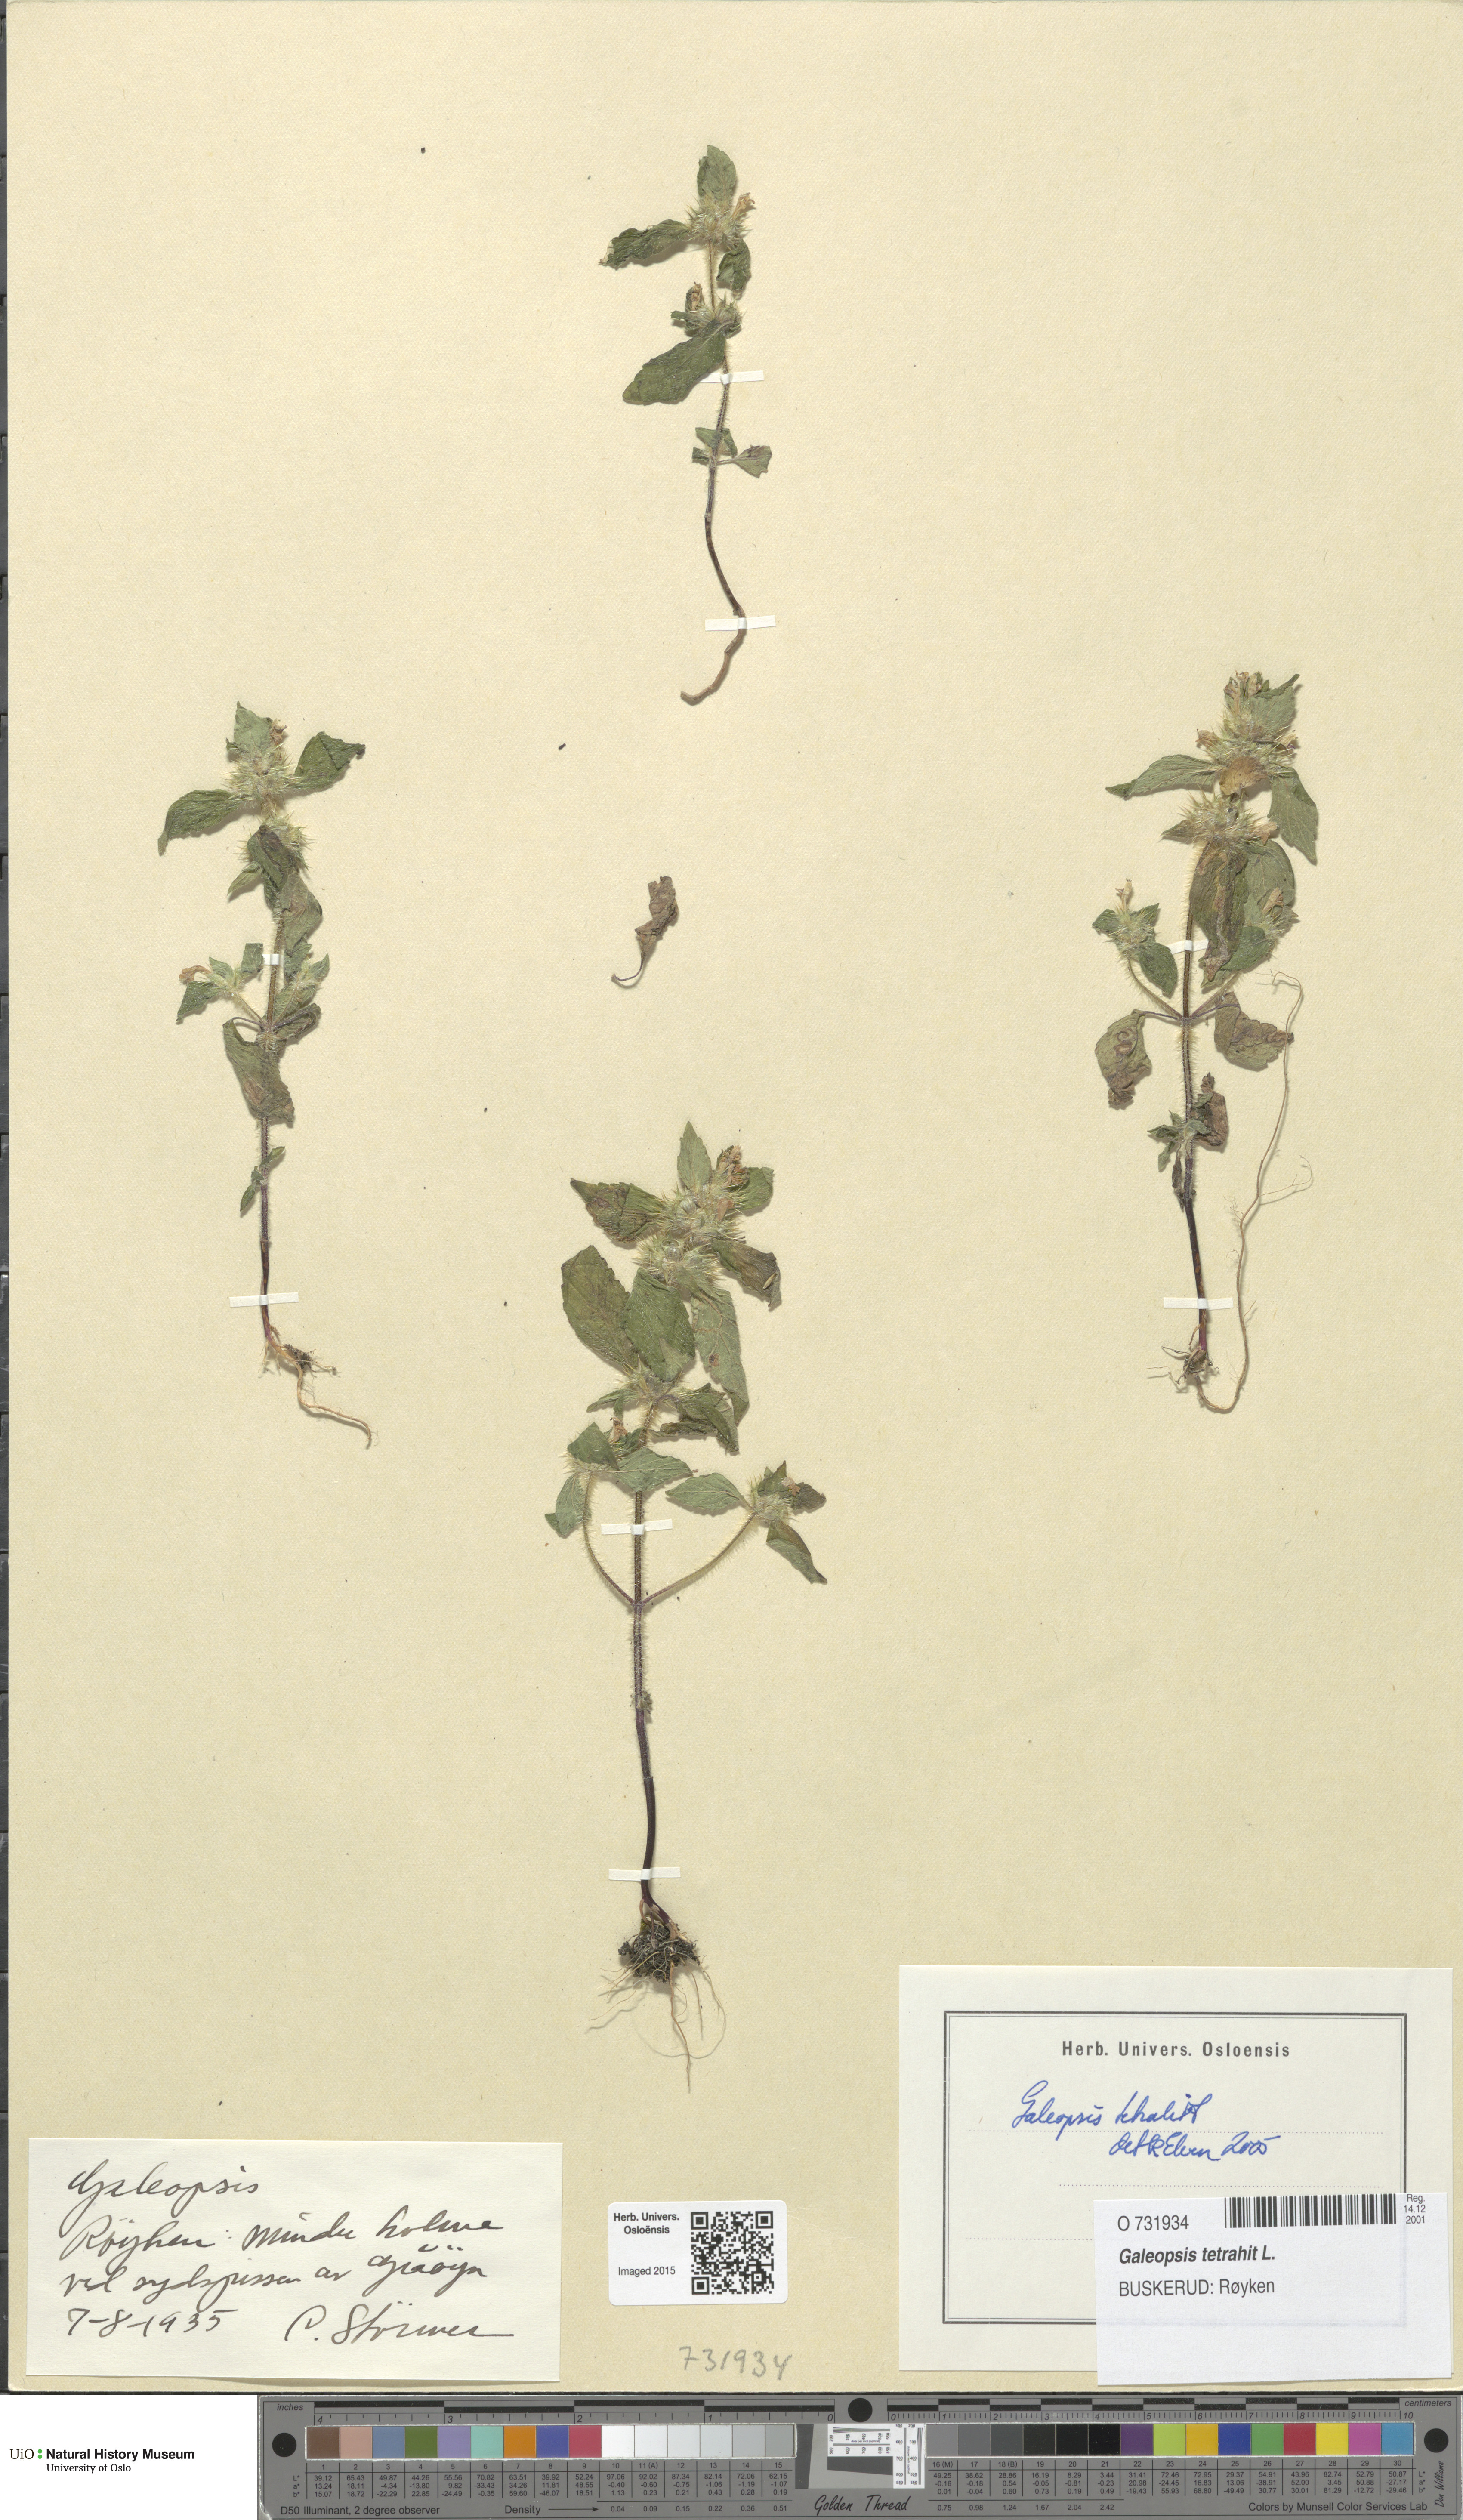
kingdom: Plantae
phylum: Tracheophyta
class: Magnoliopsida
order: Lamiales
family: Lamiaceae
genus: Galeopsis
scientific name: Galeopsis tetrahit
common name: Common hemp-nettle
